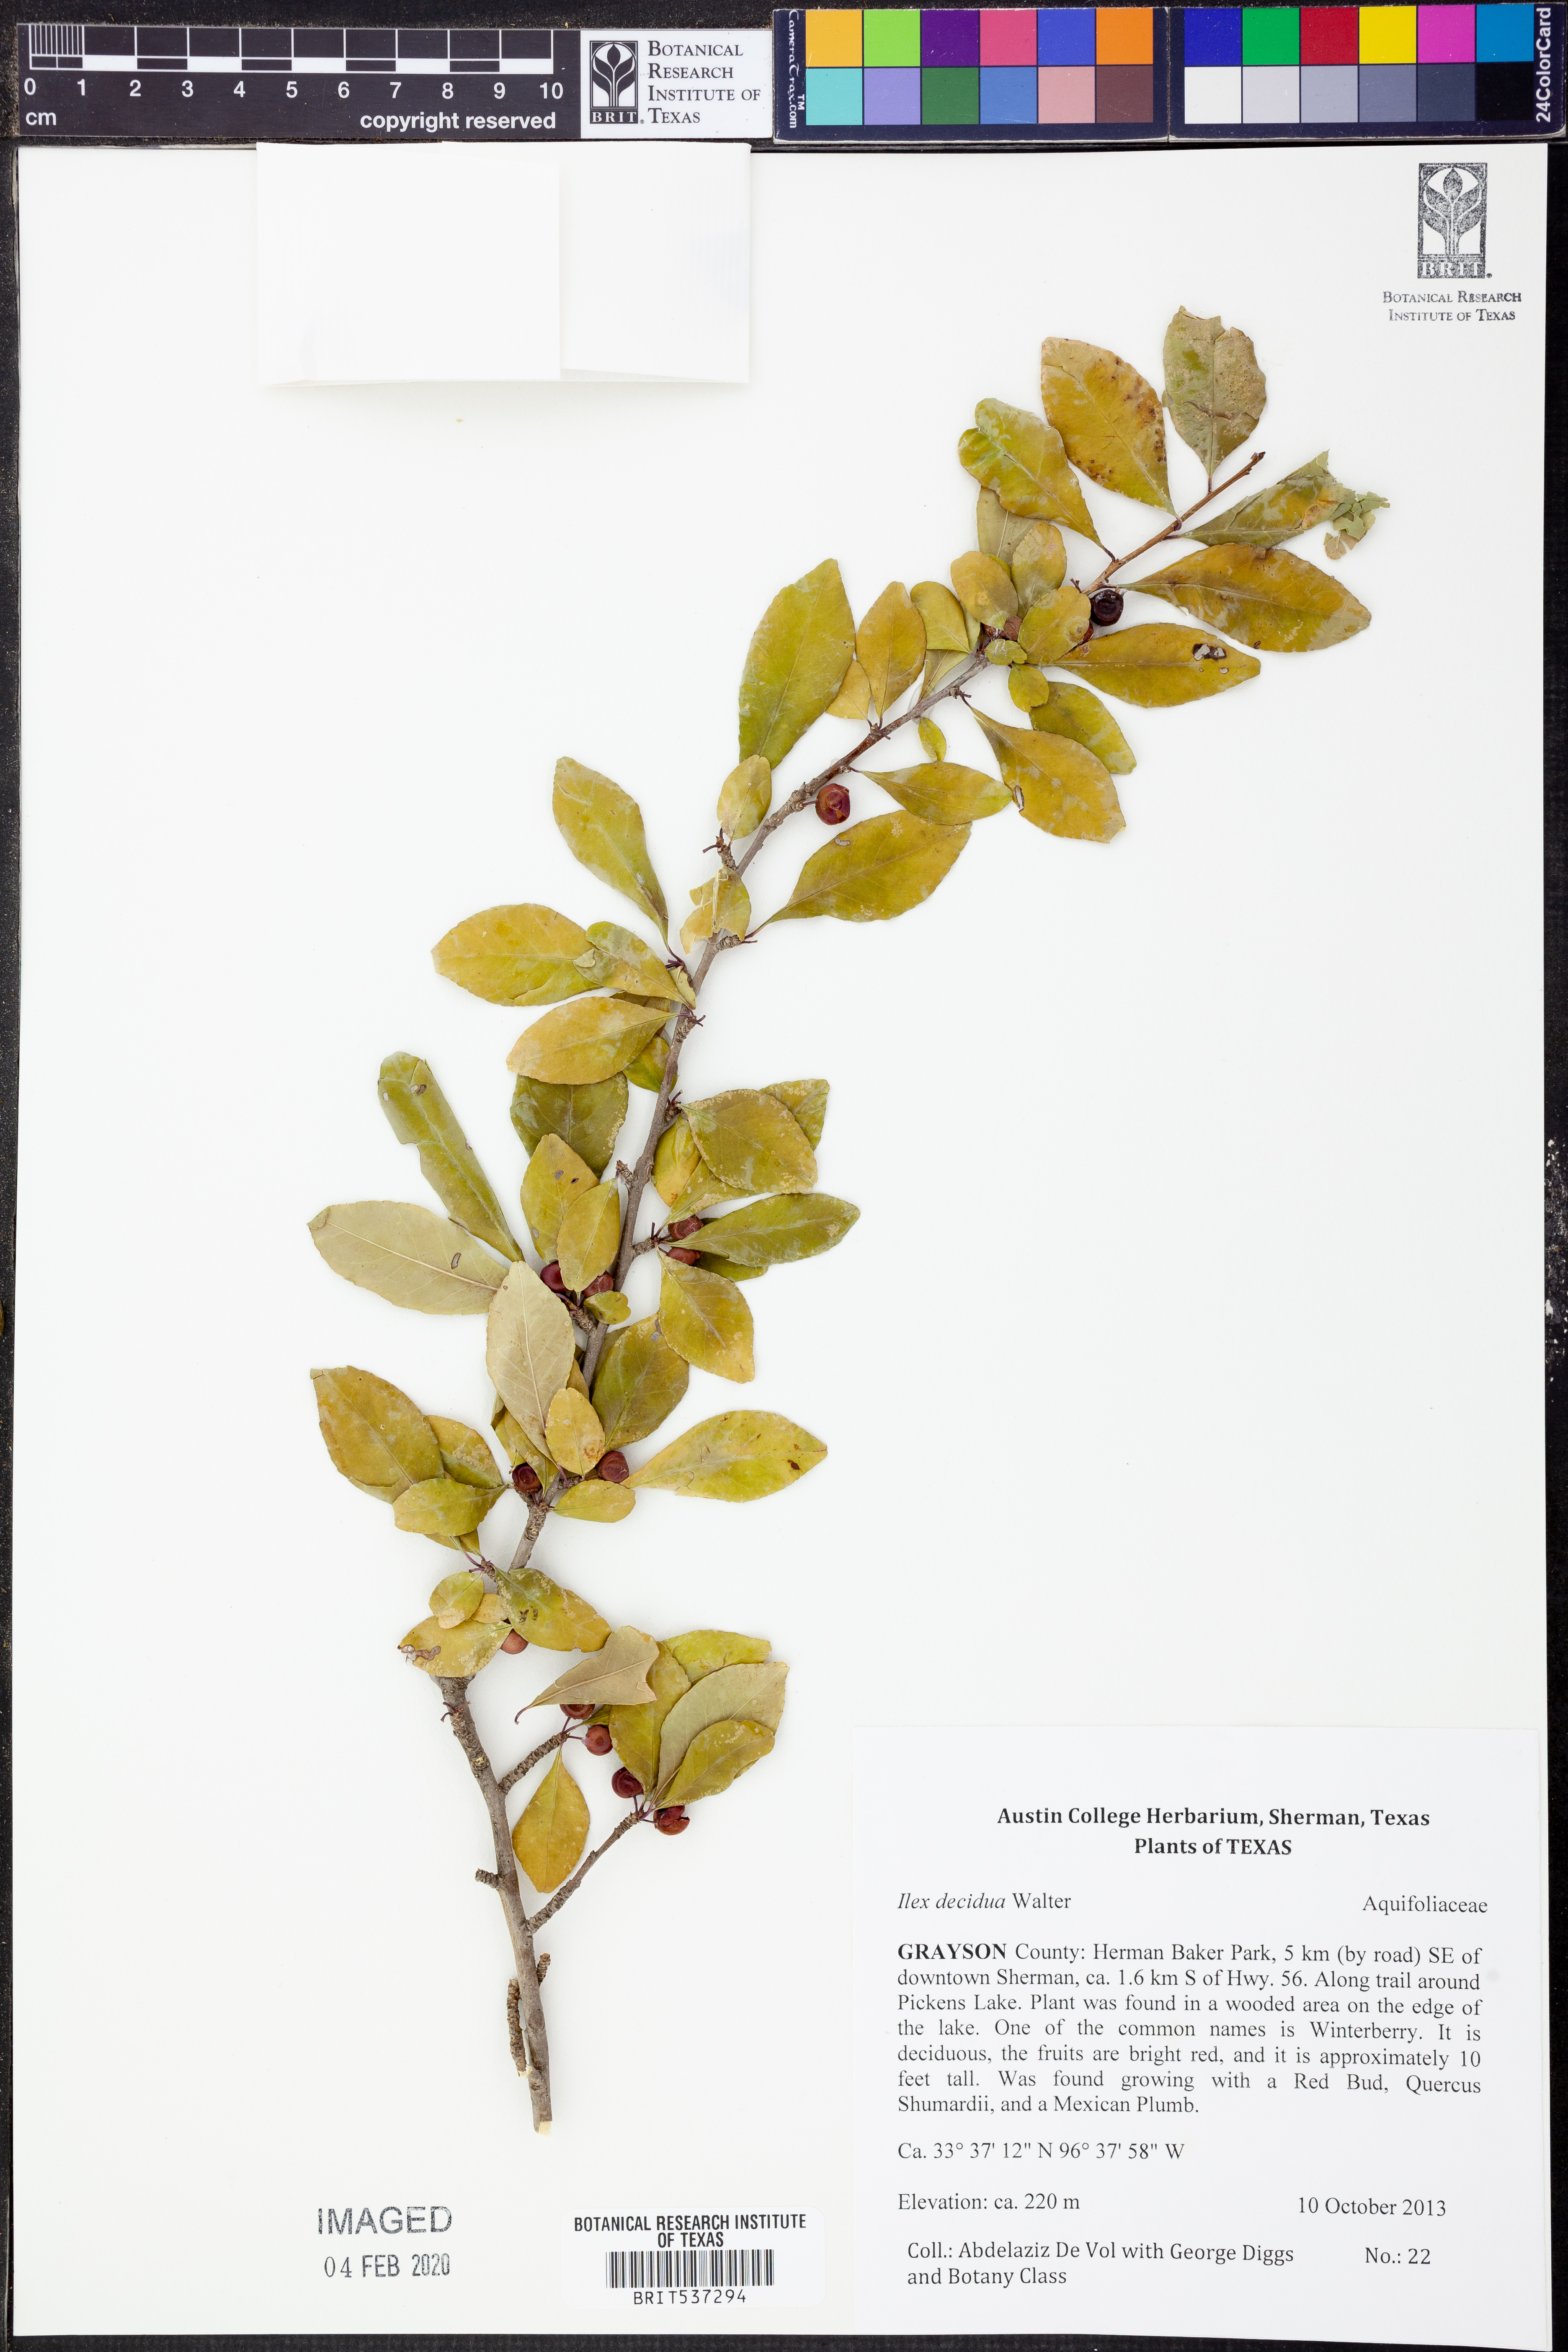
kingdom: Plantae
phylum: Tracheophyta
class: Magnoliopsida
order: Aquifoliales
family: Aquifoliaceae
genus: Ilex
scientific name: Ilex decidua
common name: Possum-haw
